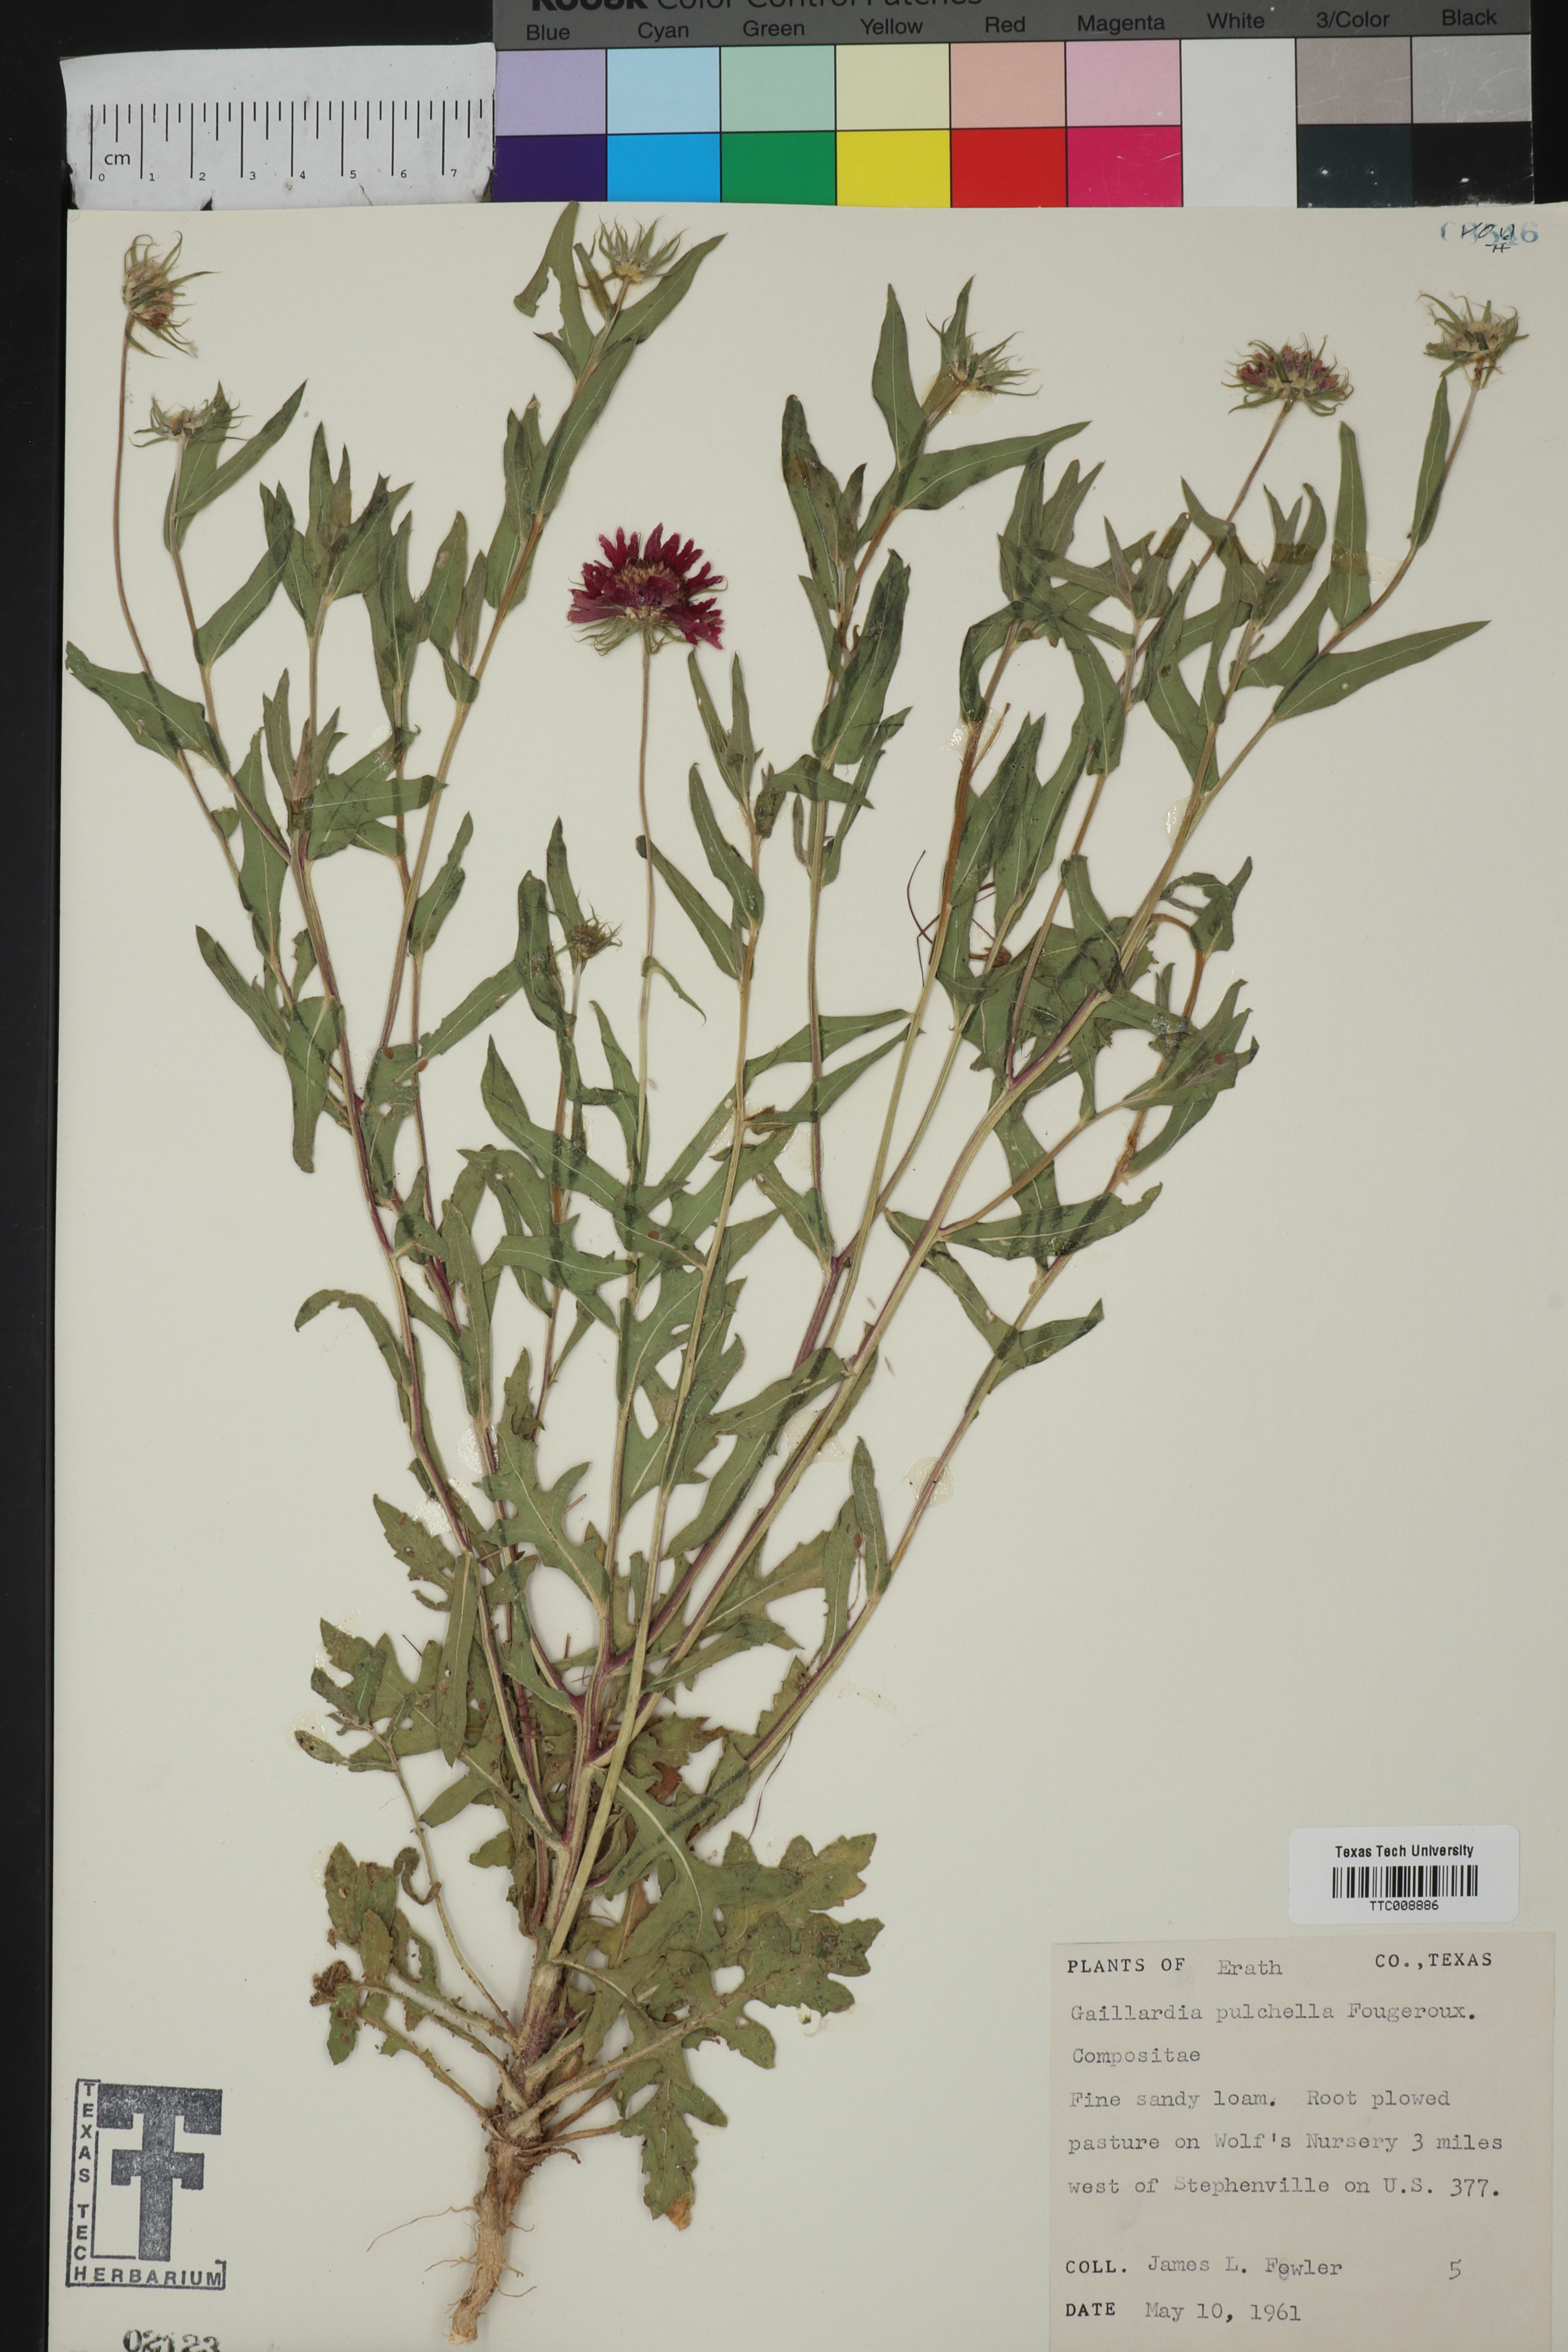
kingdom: Plantae
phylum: Tracheophyta
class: Magnoliopsida
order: Asterales
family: Asteraceae
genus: Gaillardia
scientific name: Gaillardia pulchella
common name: Firewheel
